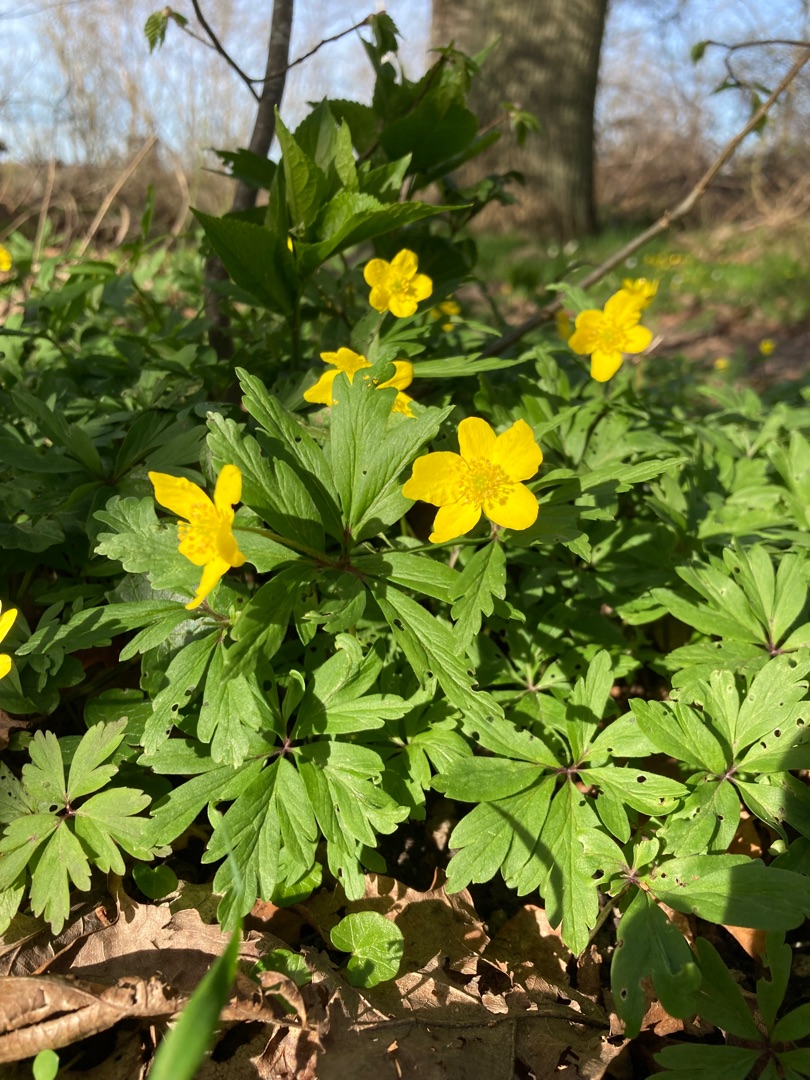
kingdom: Plantae
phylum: Tracheophyta
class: Magnoliopsida
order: Ranunculales
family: Ranunculaceae
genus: Anemone
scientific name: Anemone ranunculoides
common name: Gul anemone
